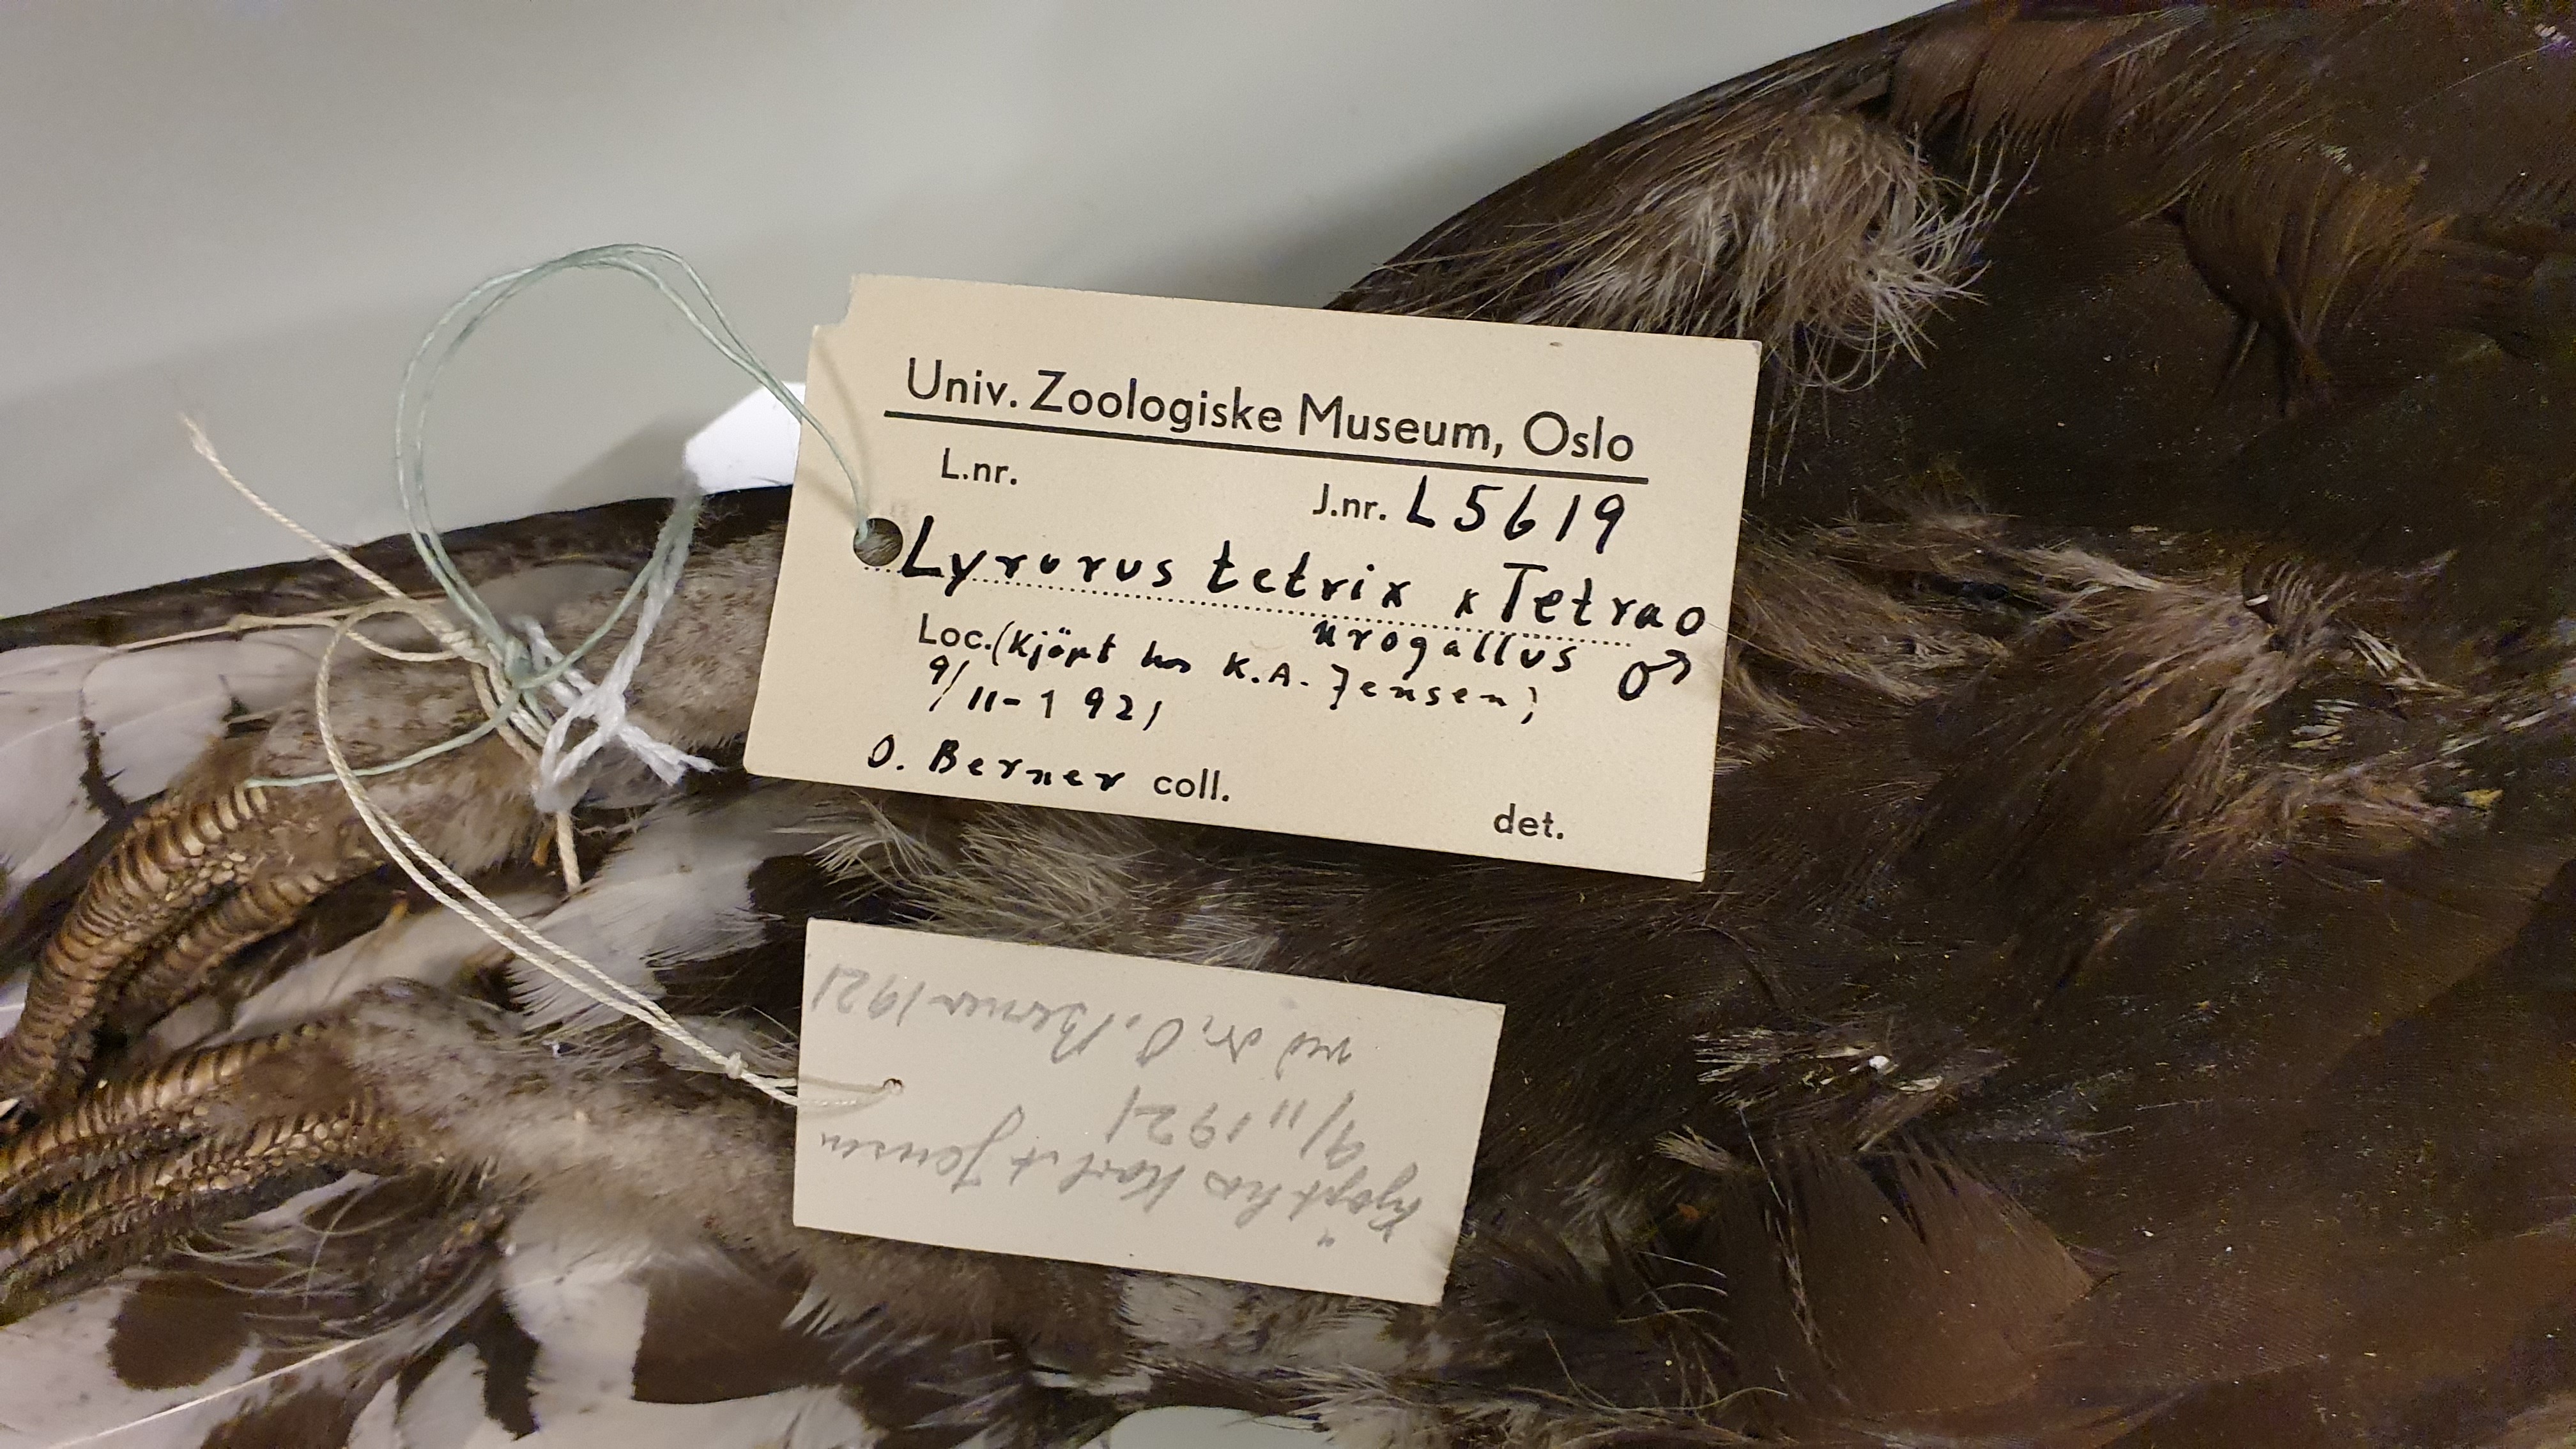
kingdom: Animalia
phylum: Chordata
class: Aves
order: Galliformes
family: Phasianidae
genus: Lyrurus
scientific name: Lyrurus
